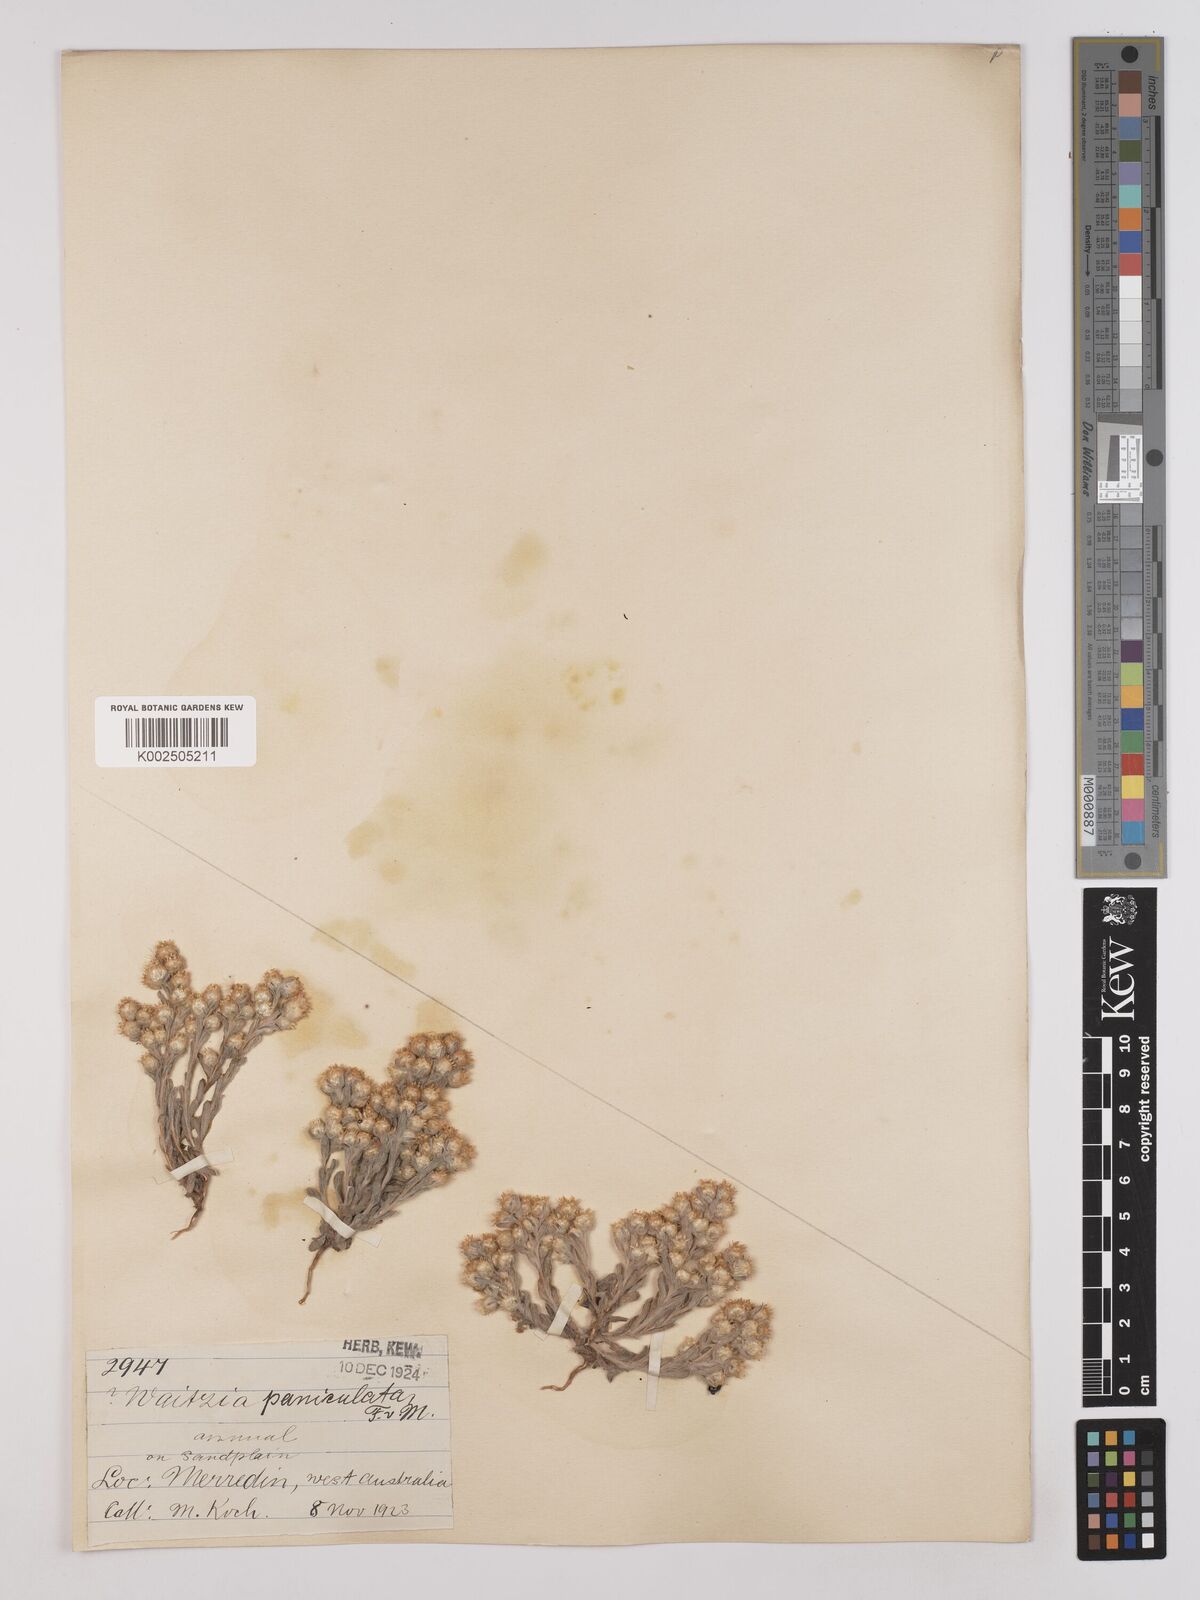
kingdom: Plantae
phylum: Tracheophyta
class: Magnoliopsida
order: Asterales
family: Asteraceae
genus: Pterochaeta
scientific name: Pterochaeta paniculata
